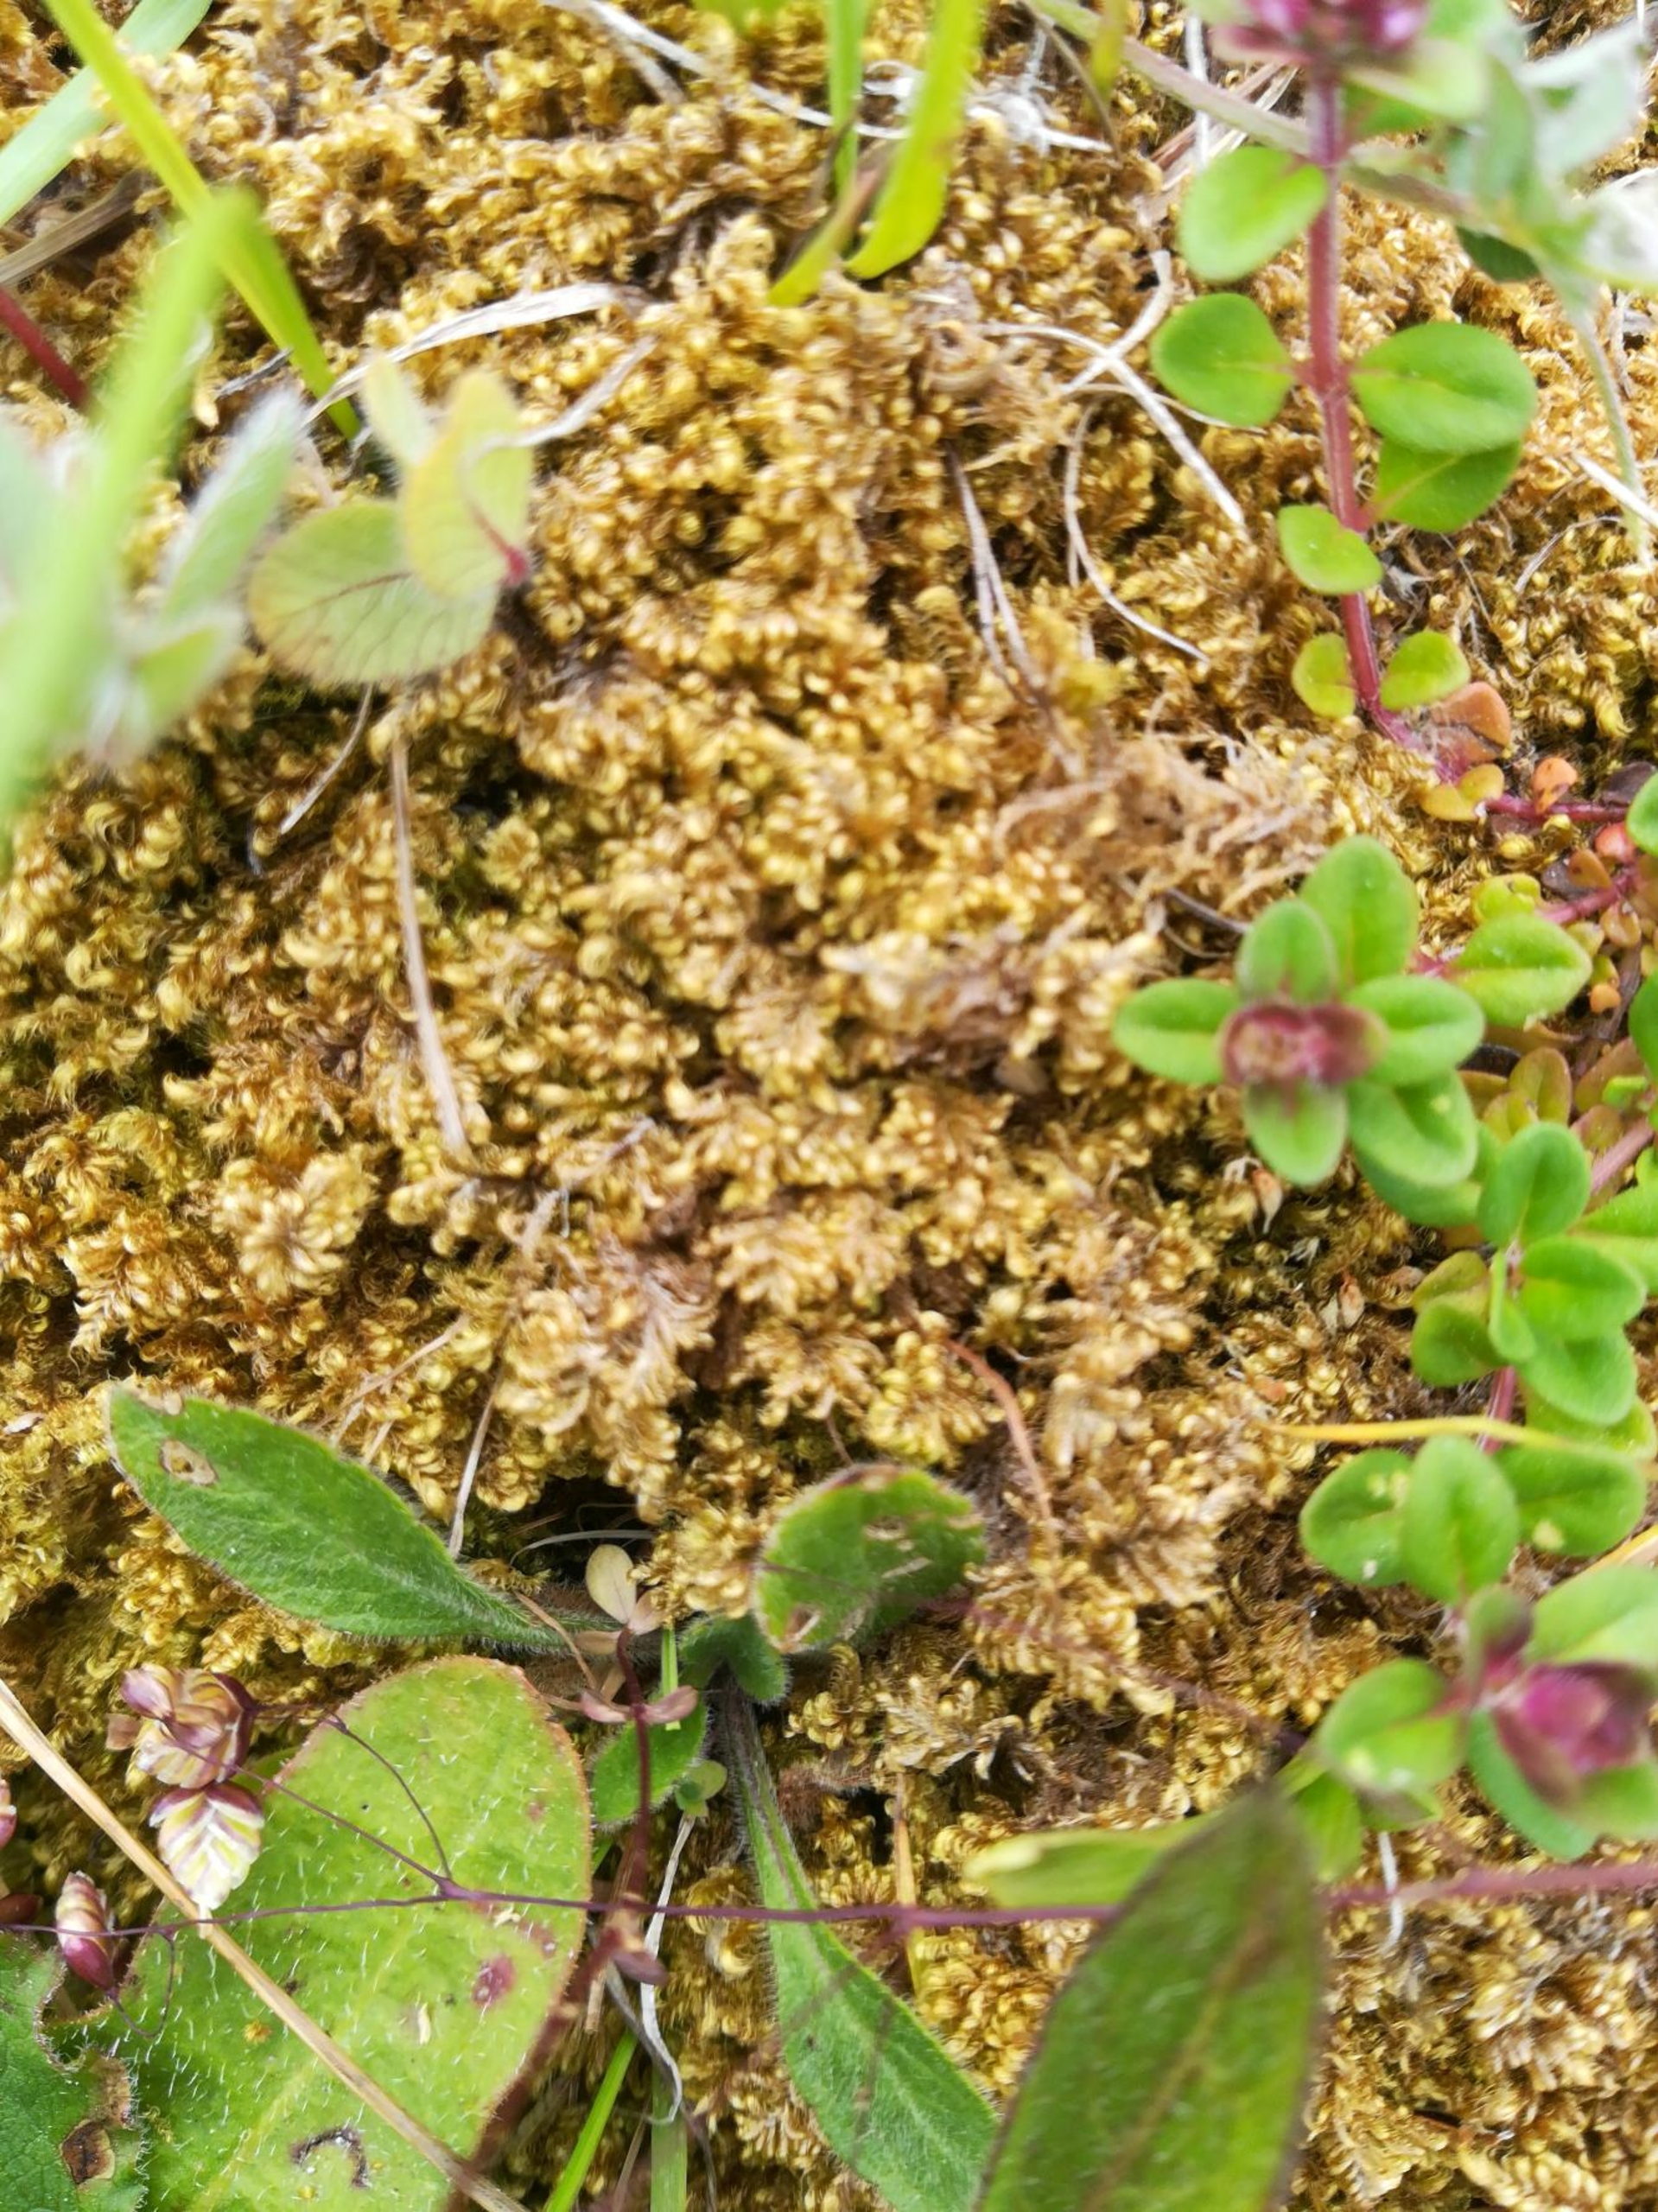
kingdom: Plantae
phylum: Bryophyta
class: Bryopsida
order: Hypnales
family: Myuriaceae
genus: Ctenidium
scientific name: Ctenidium molluscum
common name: Kalk-blødmos
